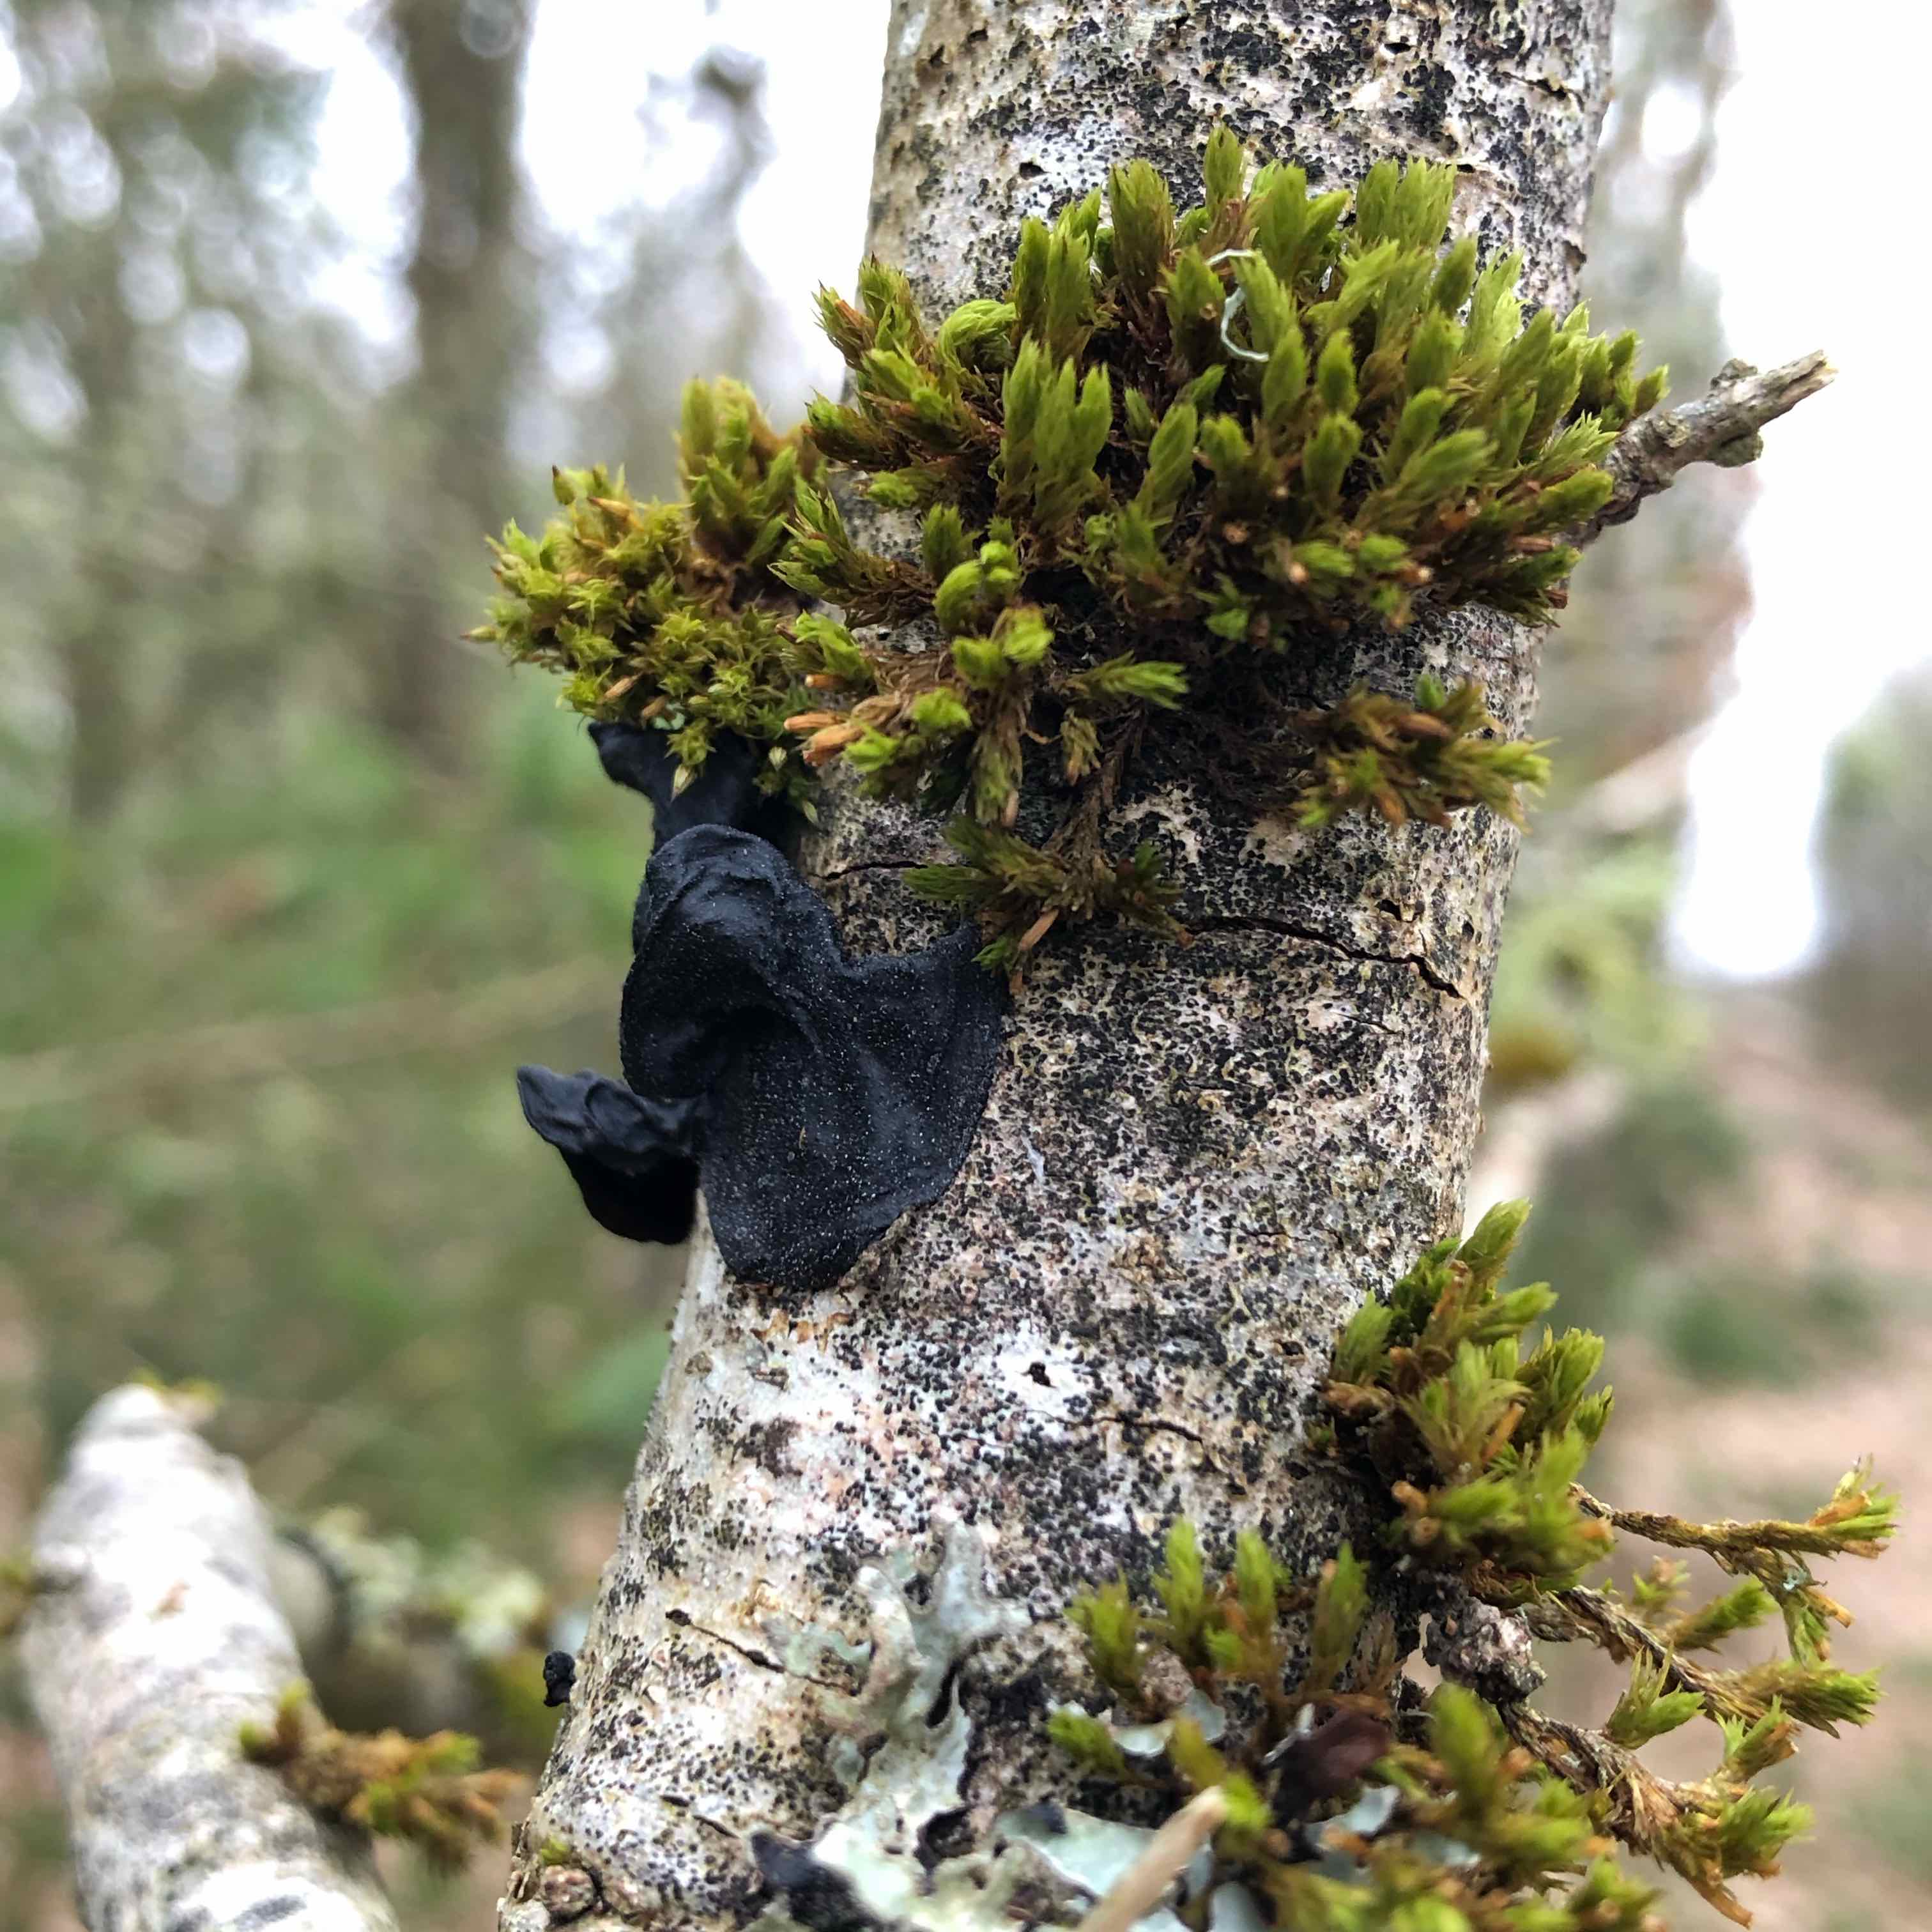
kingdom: Fungi
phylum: Basidiomycota
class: Agaricomycetes
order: Auriculariales
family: Auriculariaceae
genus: Exidia
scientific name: Exidia glandulosa
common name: ege-bævretop
